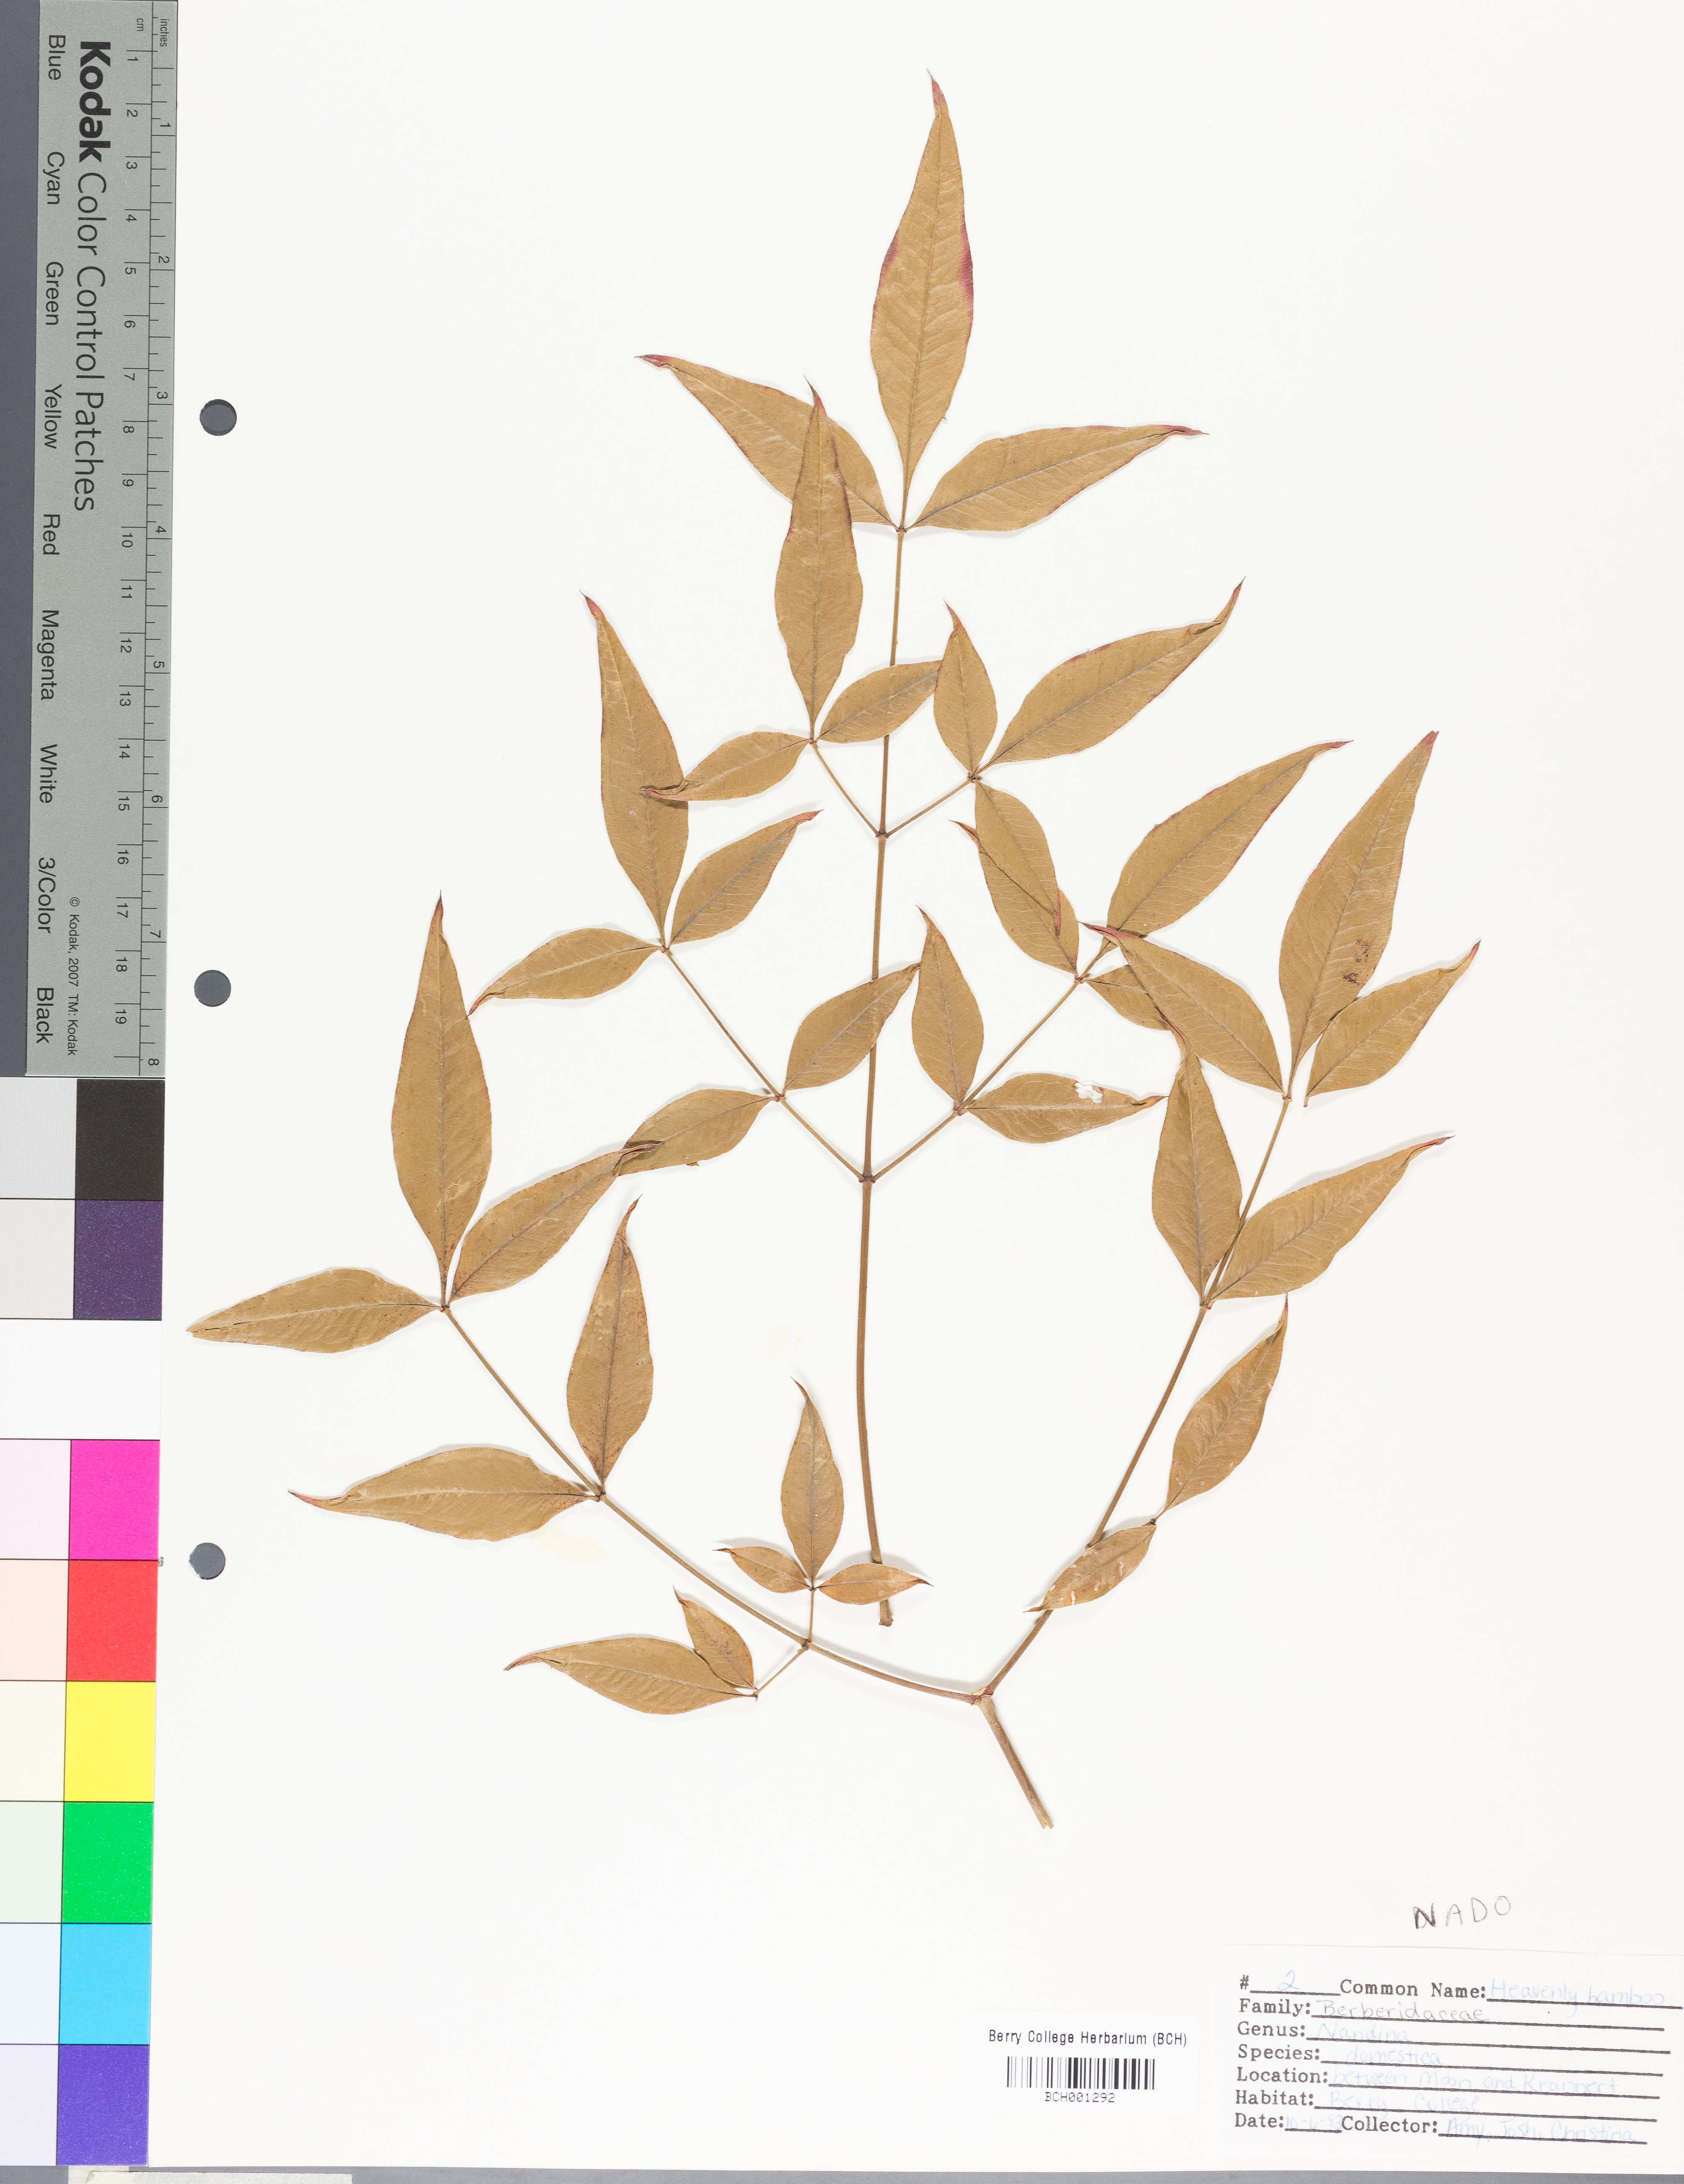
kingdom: Plantae
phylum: Tracheophyta
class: Magnoliopsida
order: Ranunculales
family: Berberidaceae
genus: Nandina
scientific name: Nandina domestica
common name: Sacred bamboo
